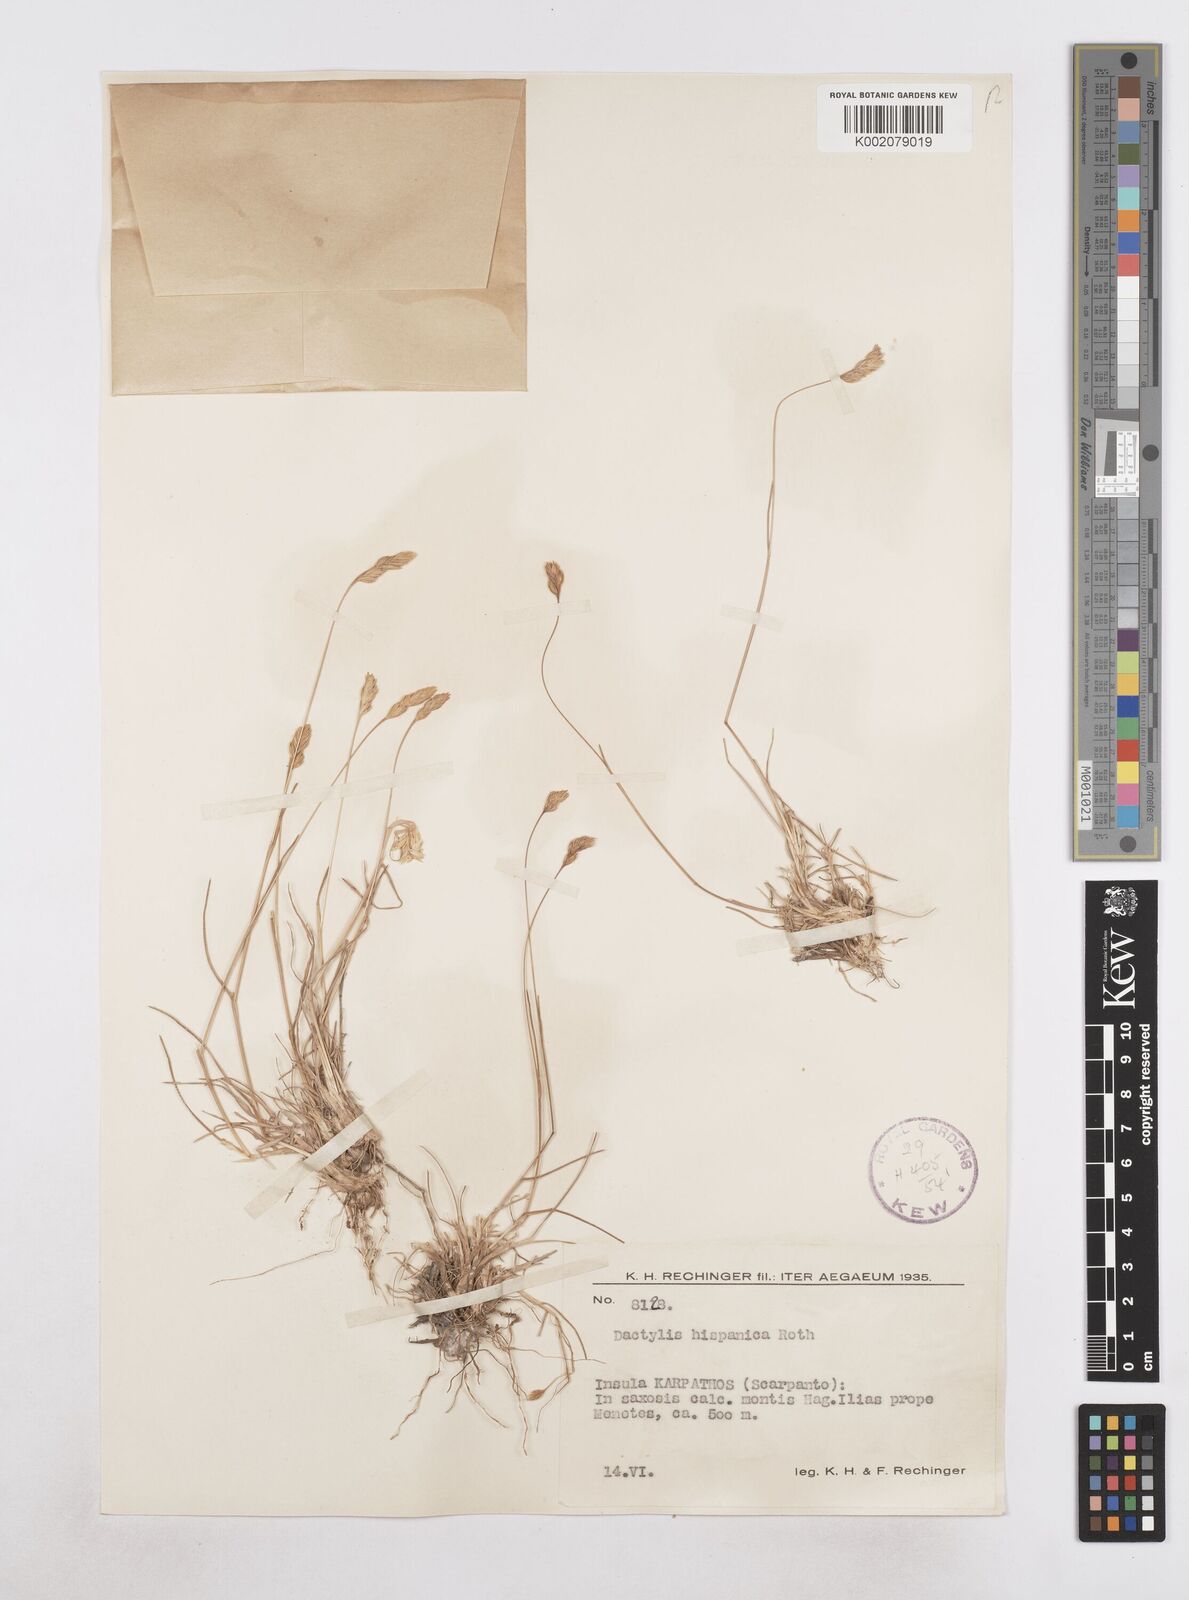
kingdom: Plantae
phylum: Tracheophyta
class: Liliopsida
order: Poales
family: Poaceae
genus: Dactylis
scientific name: Dactylis glomerata
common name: Orchardgrass
